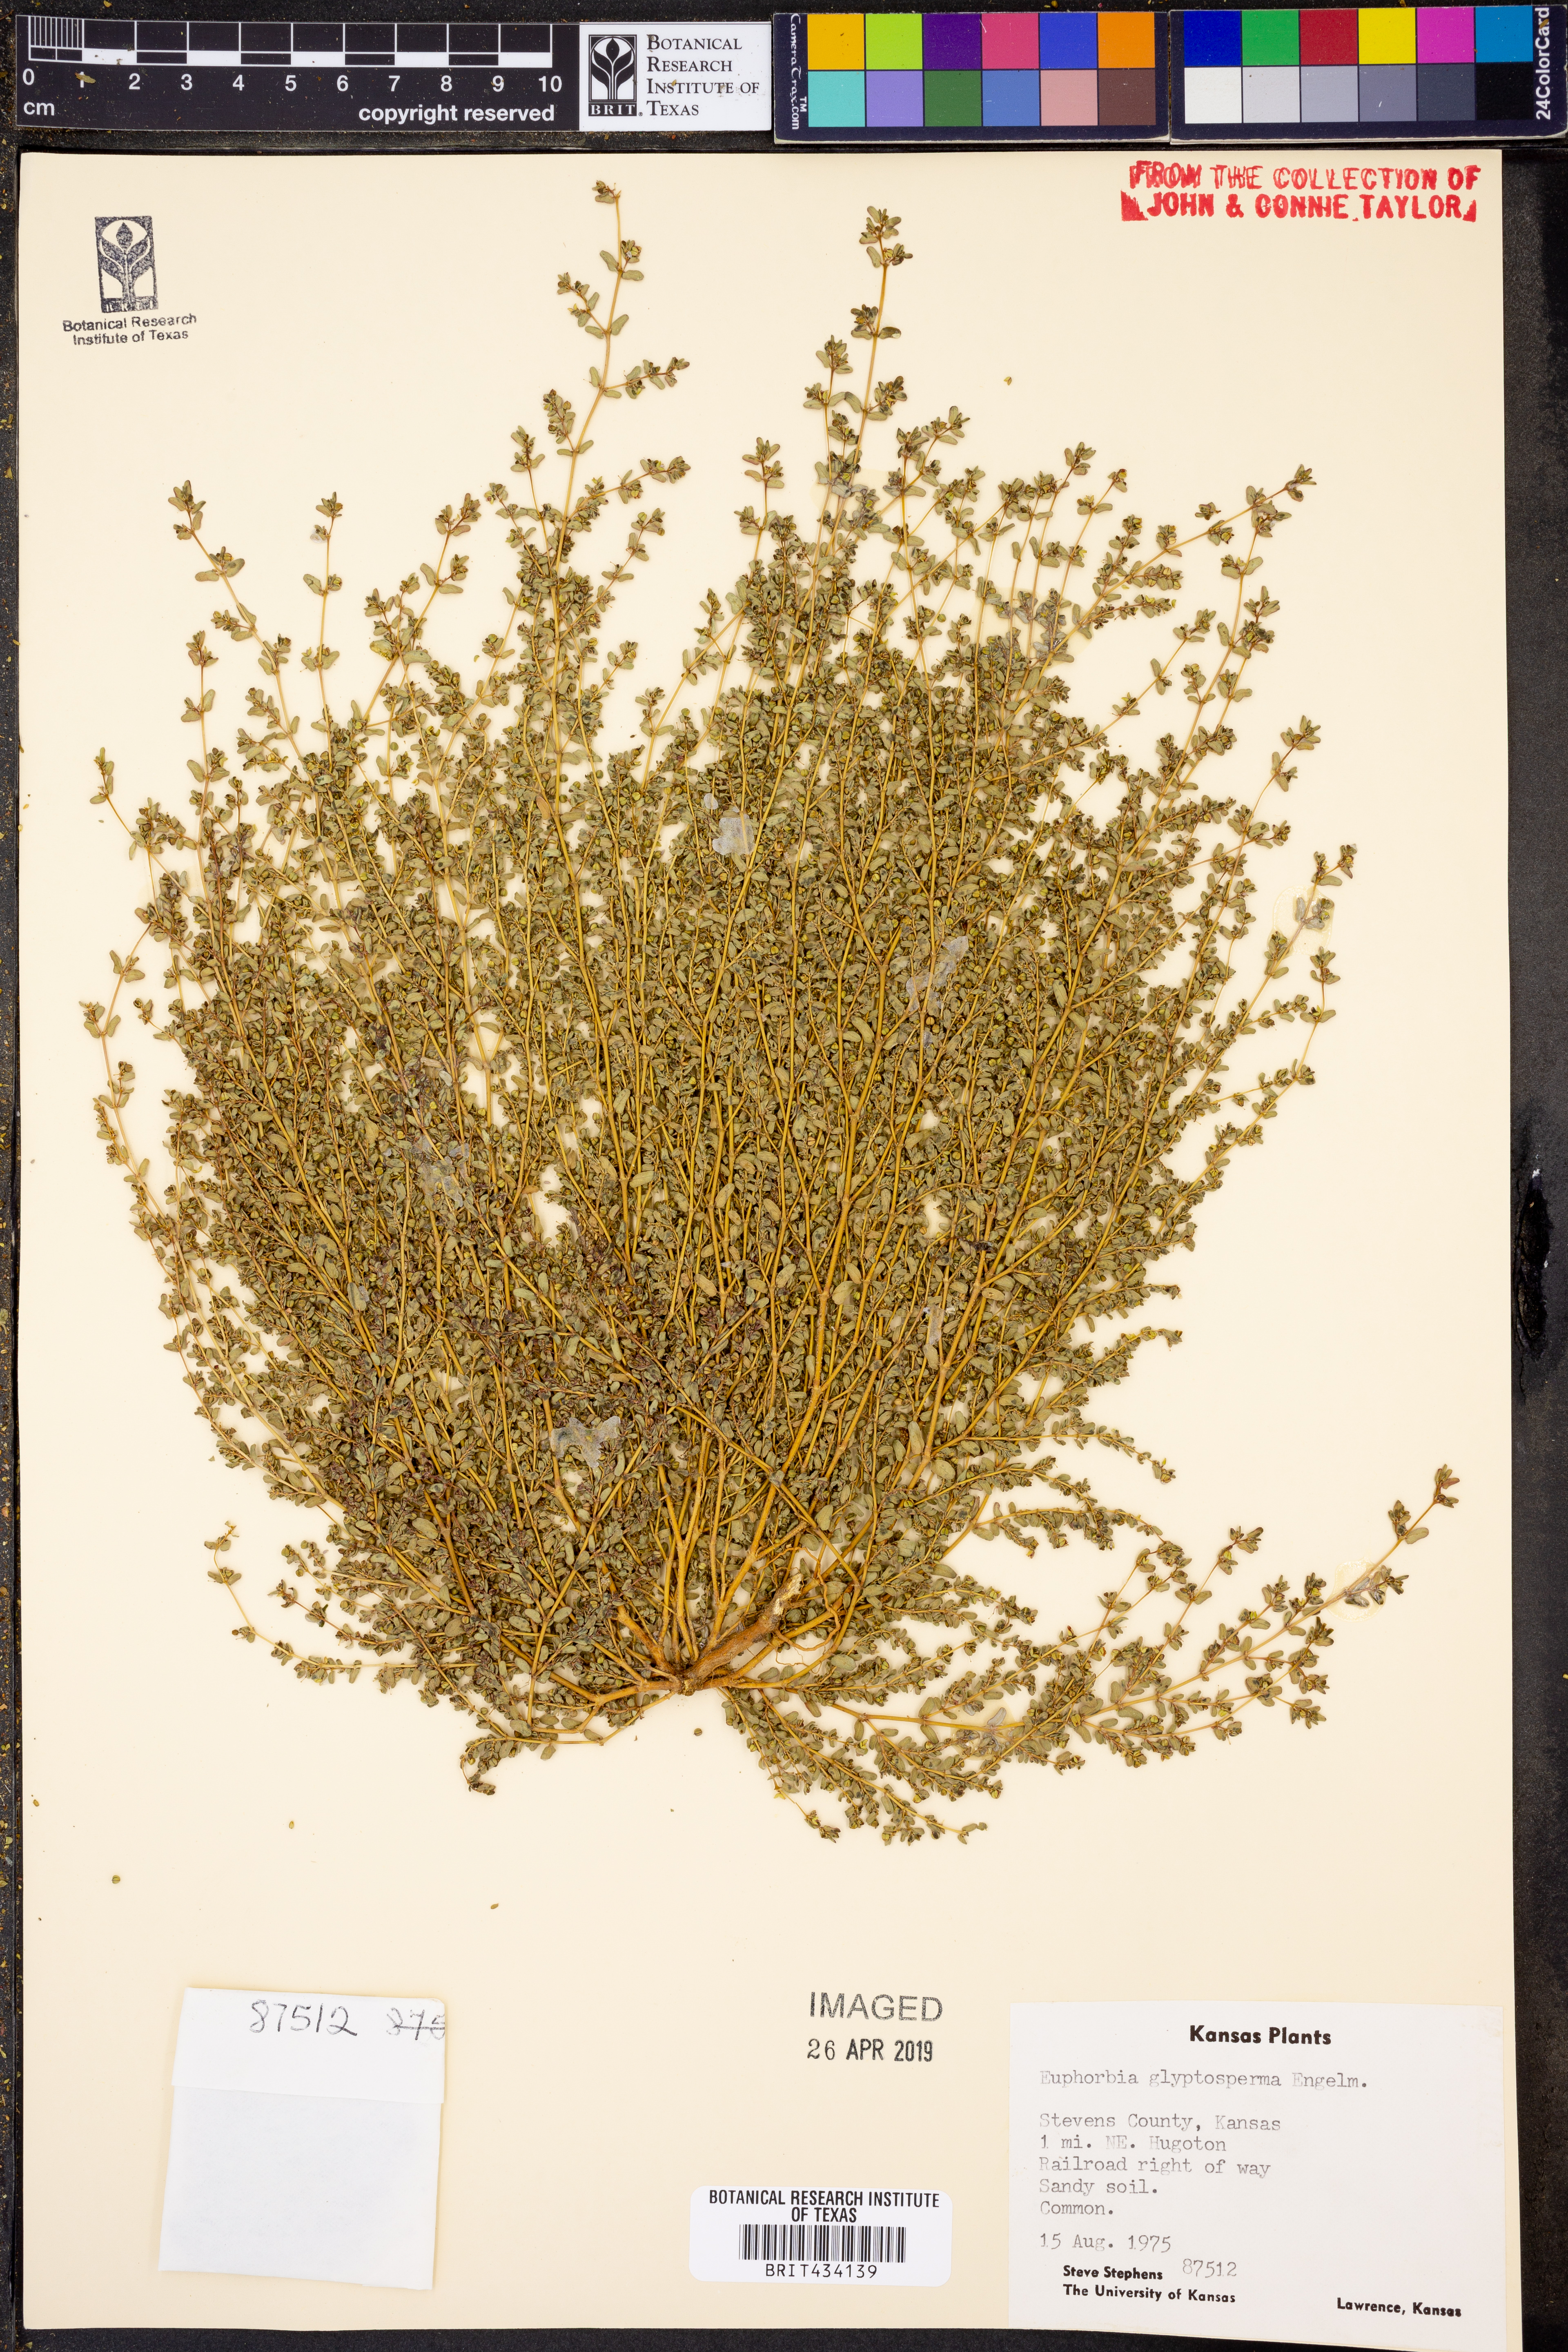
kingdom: Plantae
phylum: Tracheophyta
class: Magnoliopsida
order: Malpighiales
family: Euphorbiaceae
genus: Euphorbia
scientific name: Euphorbia glyptosperma
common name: Corrugate-seeded spurge
